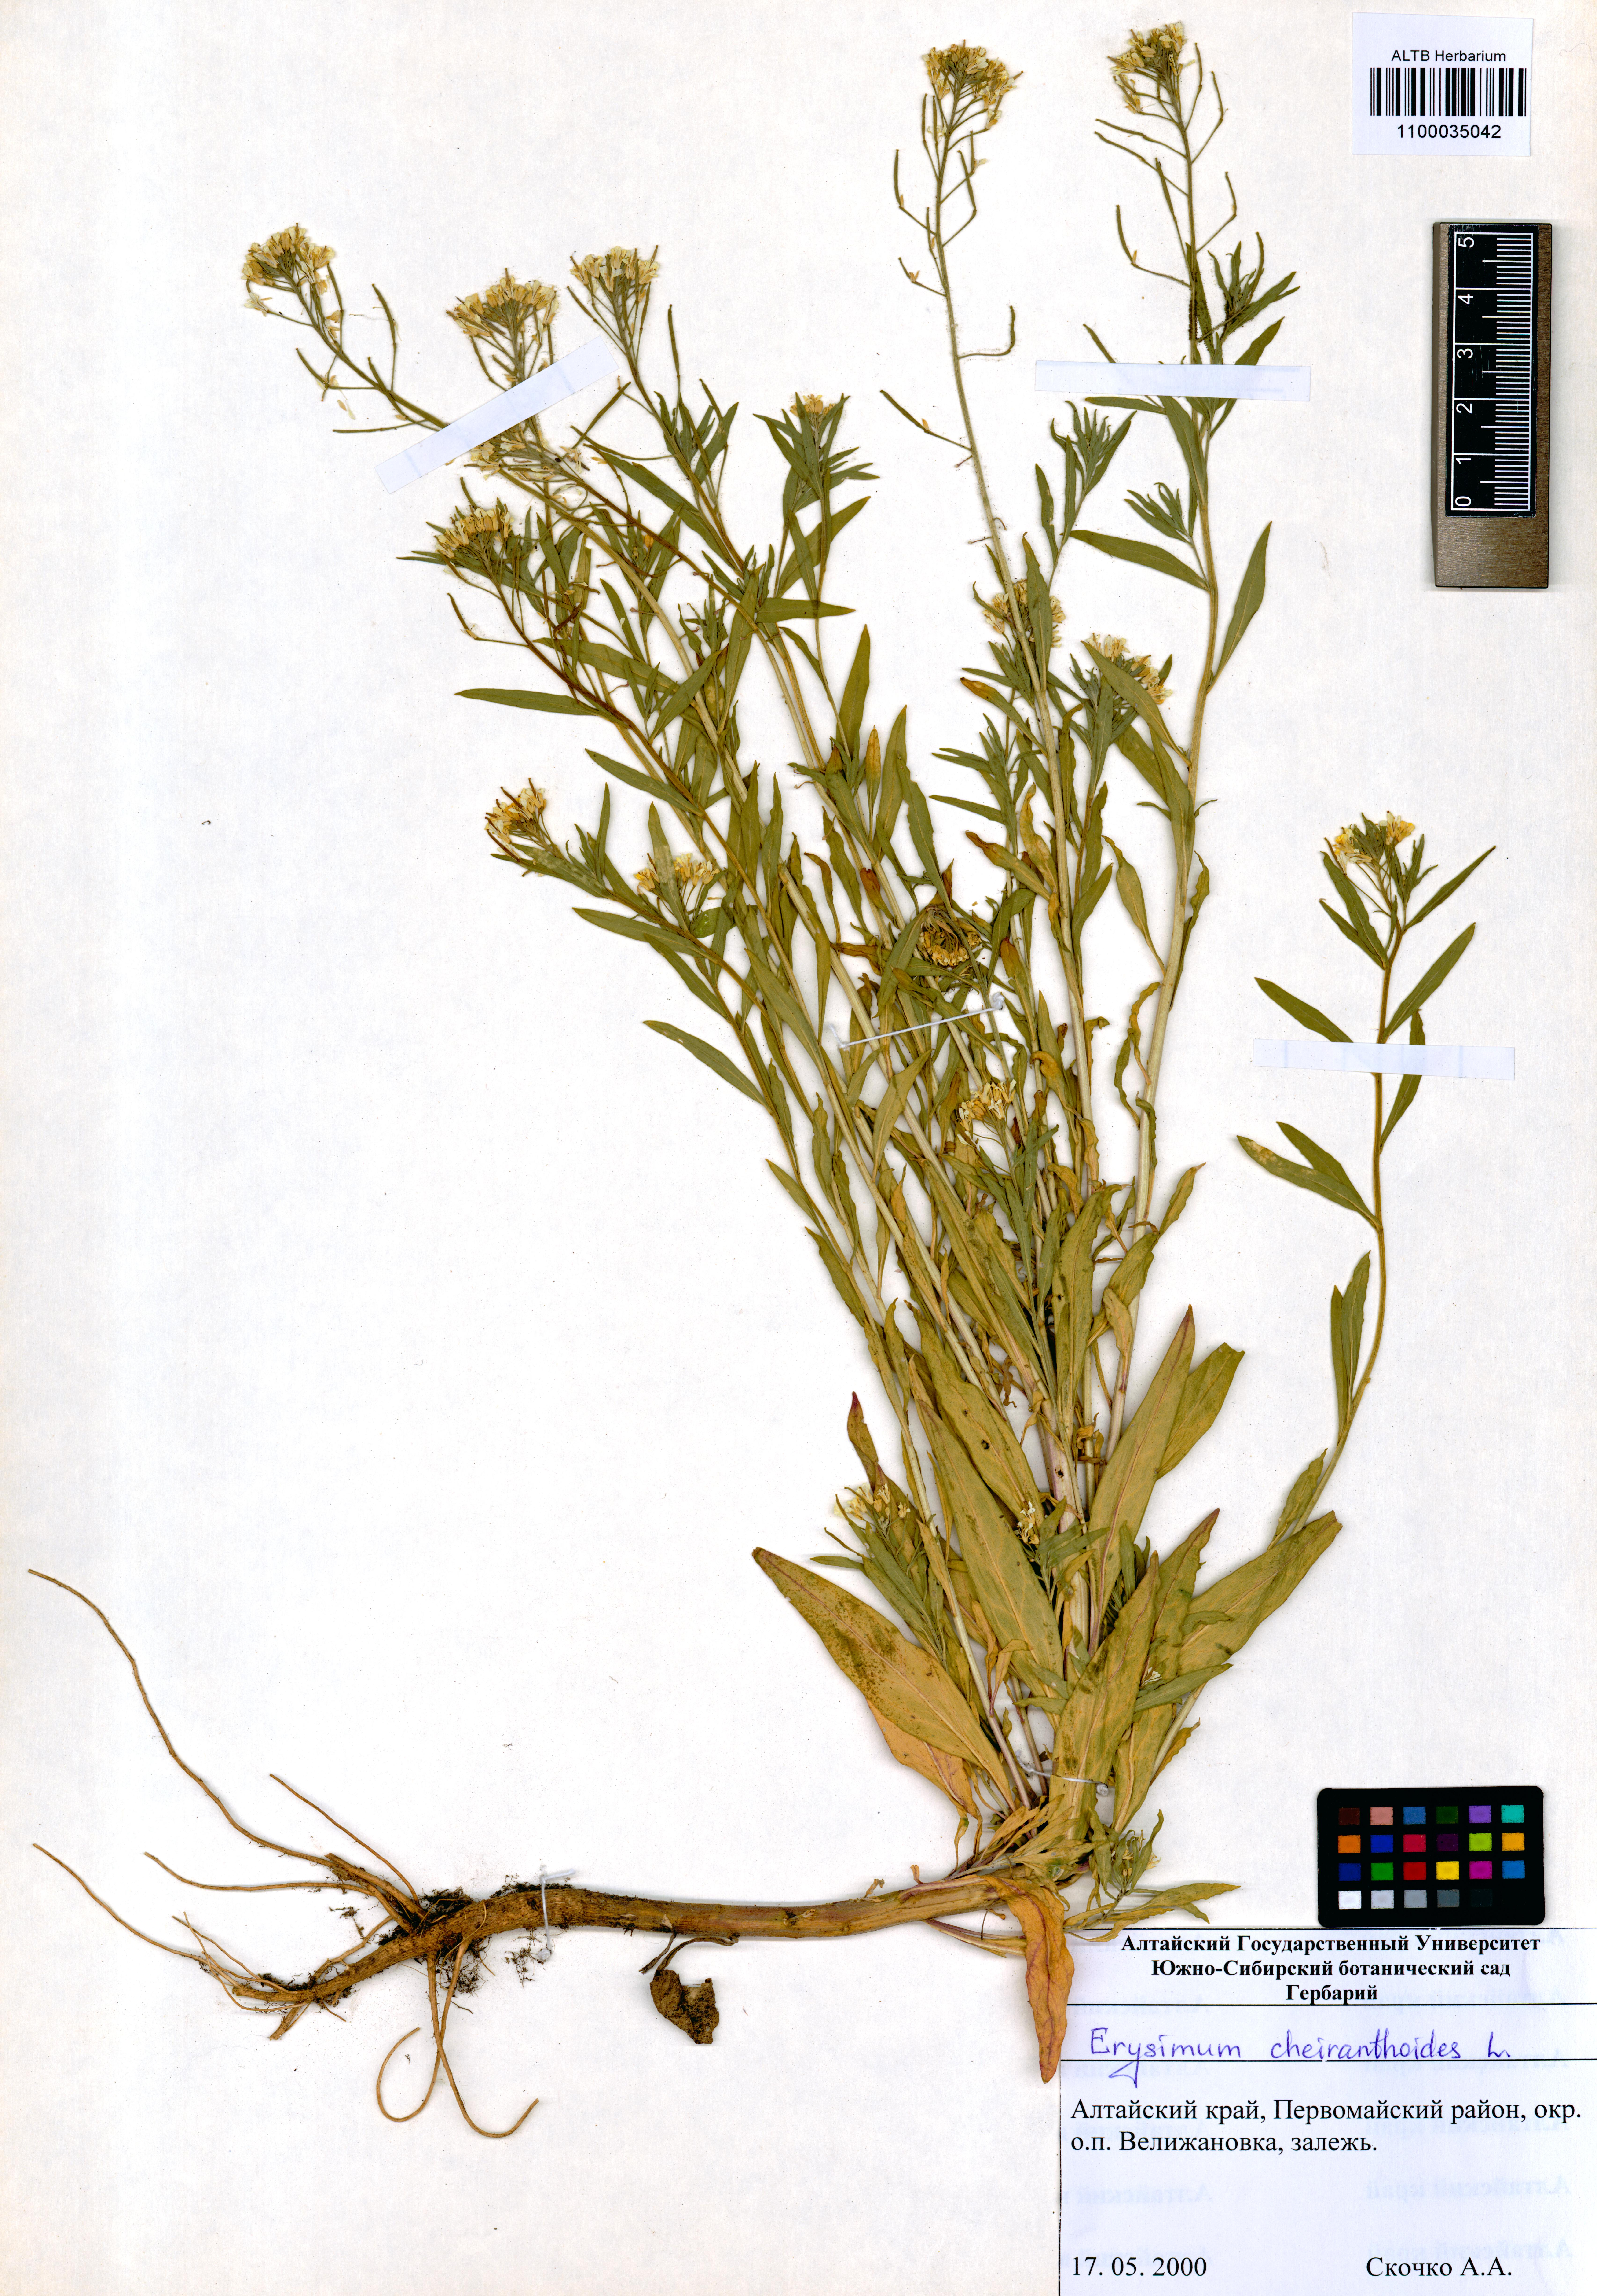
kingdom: Plantae
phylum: Tracheophyta
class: Magnoliopsida
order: Brassicales
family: Brassicaceae
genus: Erysimum
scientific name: Erysimum cheiranthoides
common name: Treacle mustard
